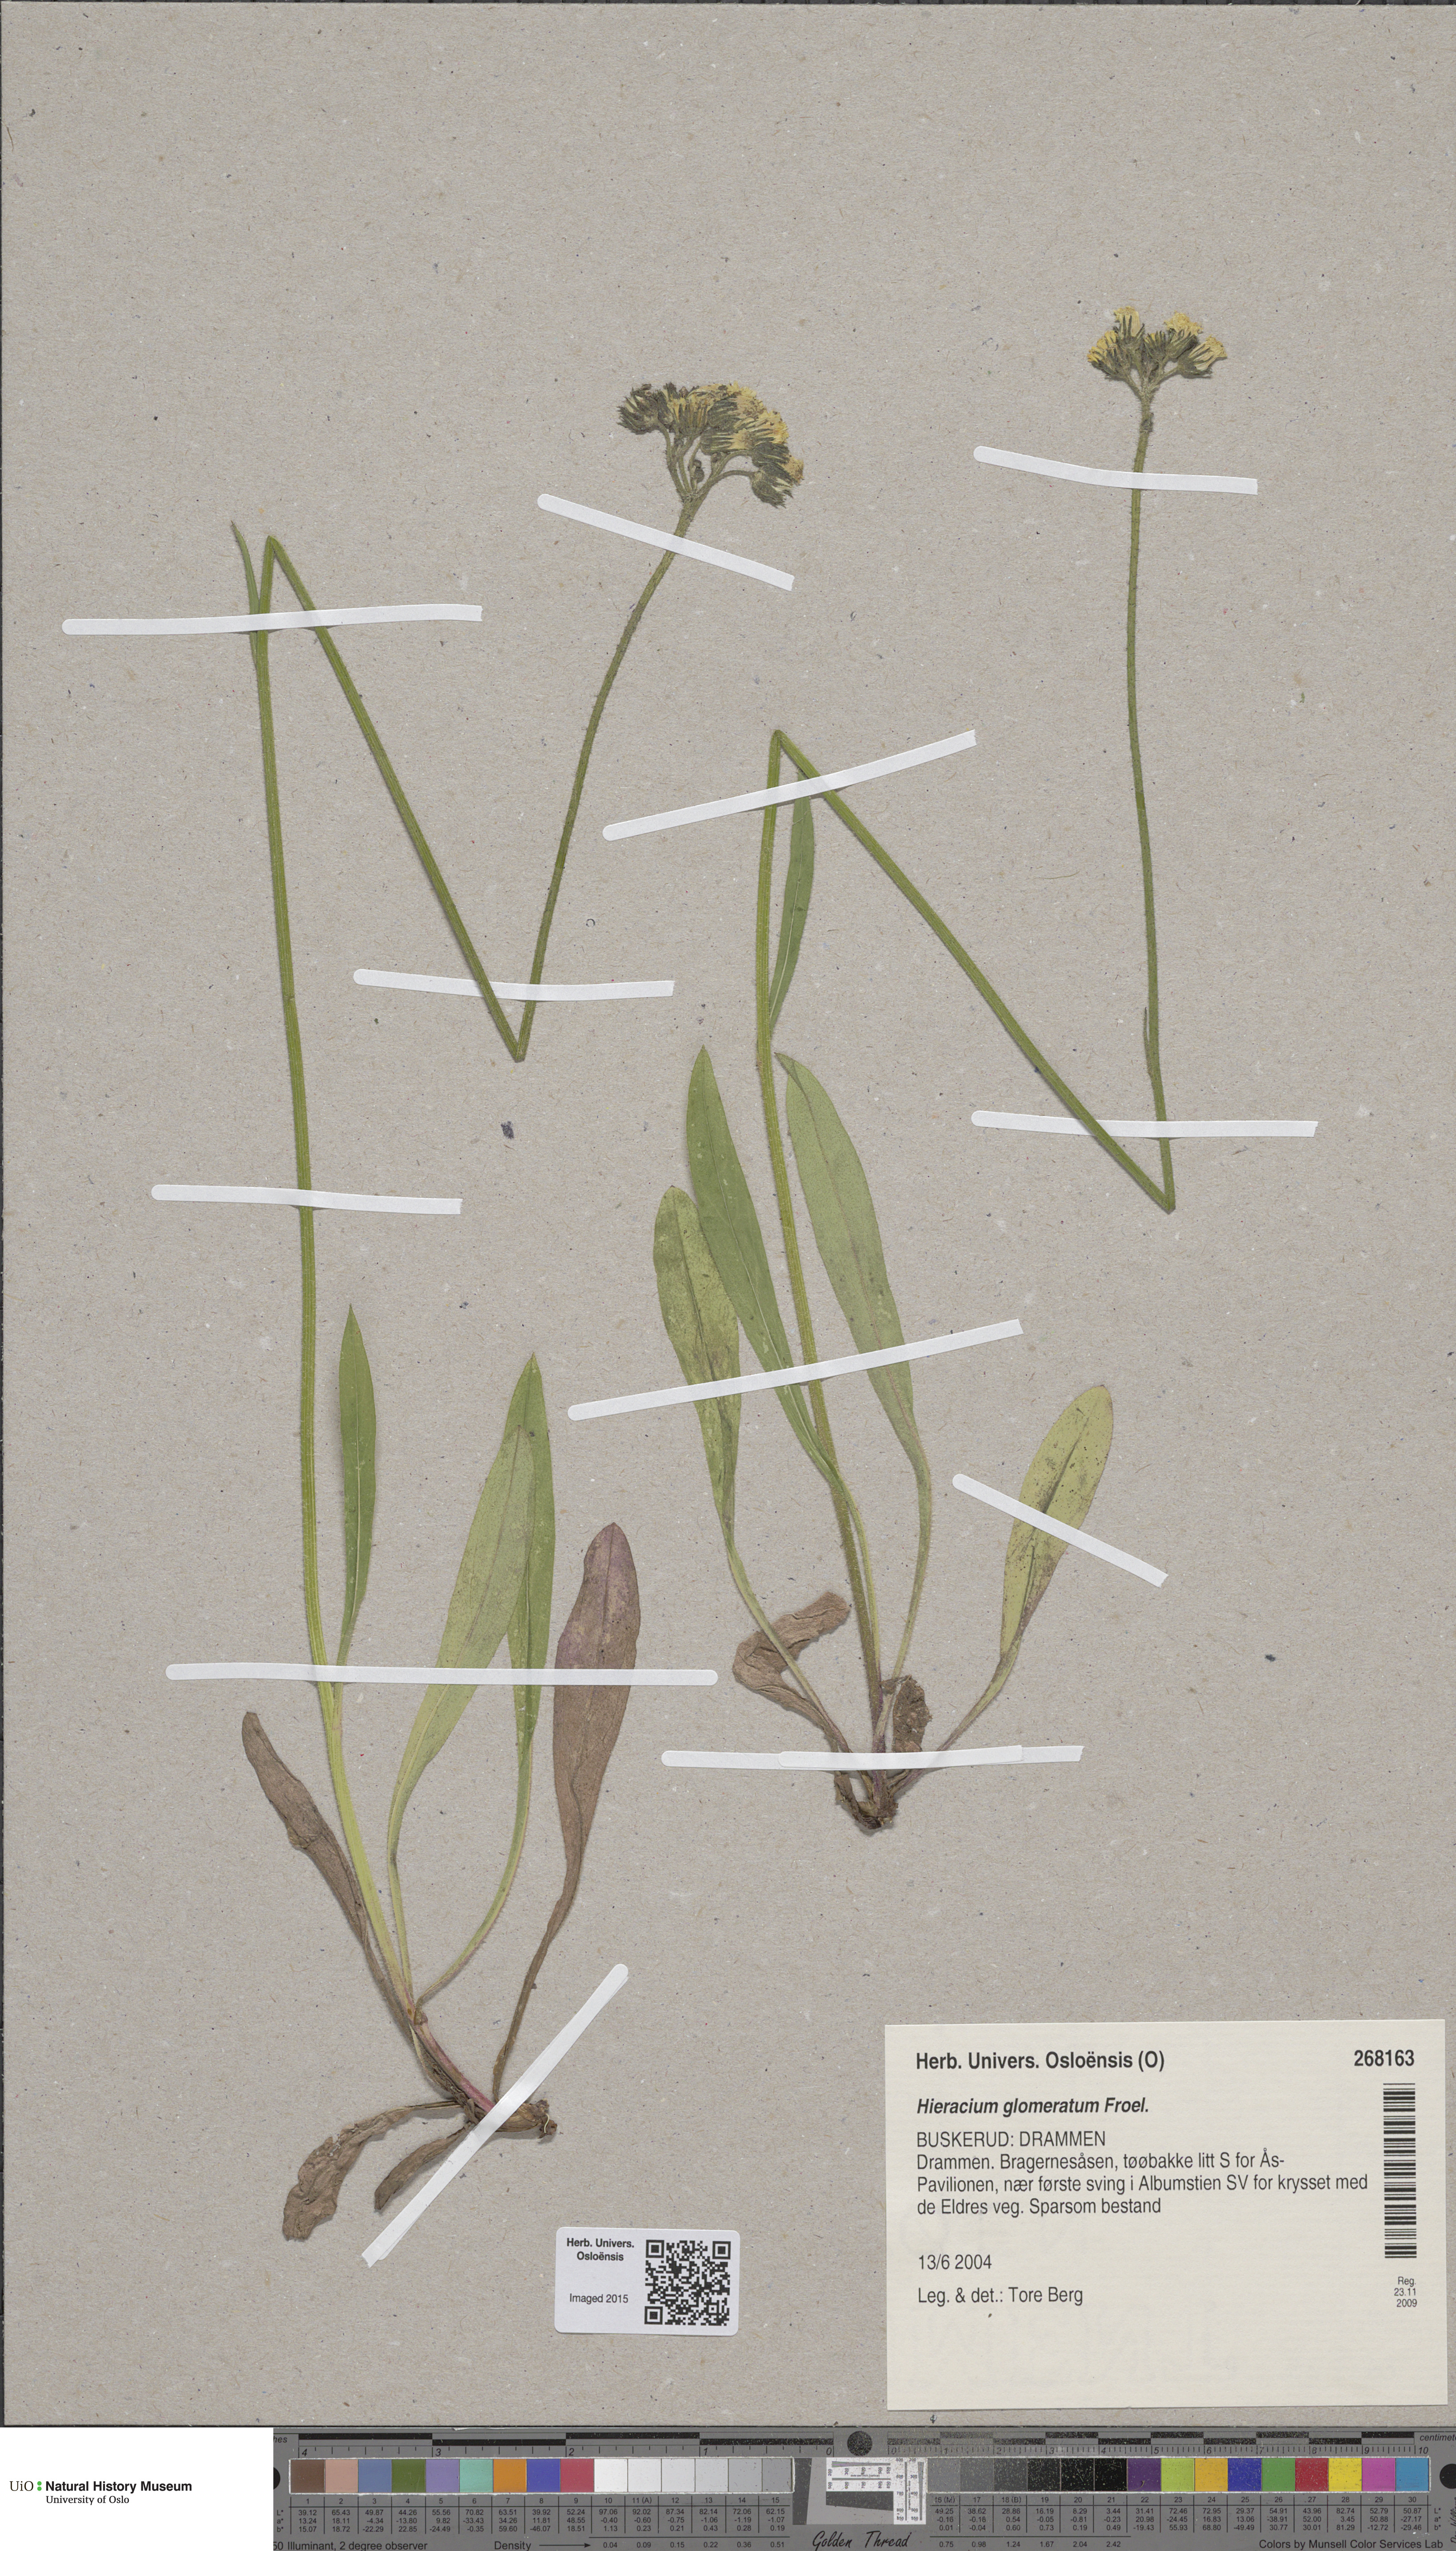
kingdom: Plantae
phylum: Tracheophyta
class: Magnoliopsida
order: Asterales
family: Asteraceae
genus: Pilosella
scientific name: Pilosella glomerata
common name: Queen devil hawkweed
